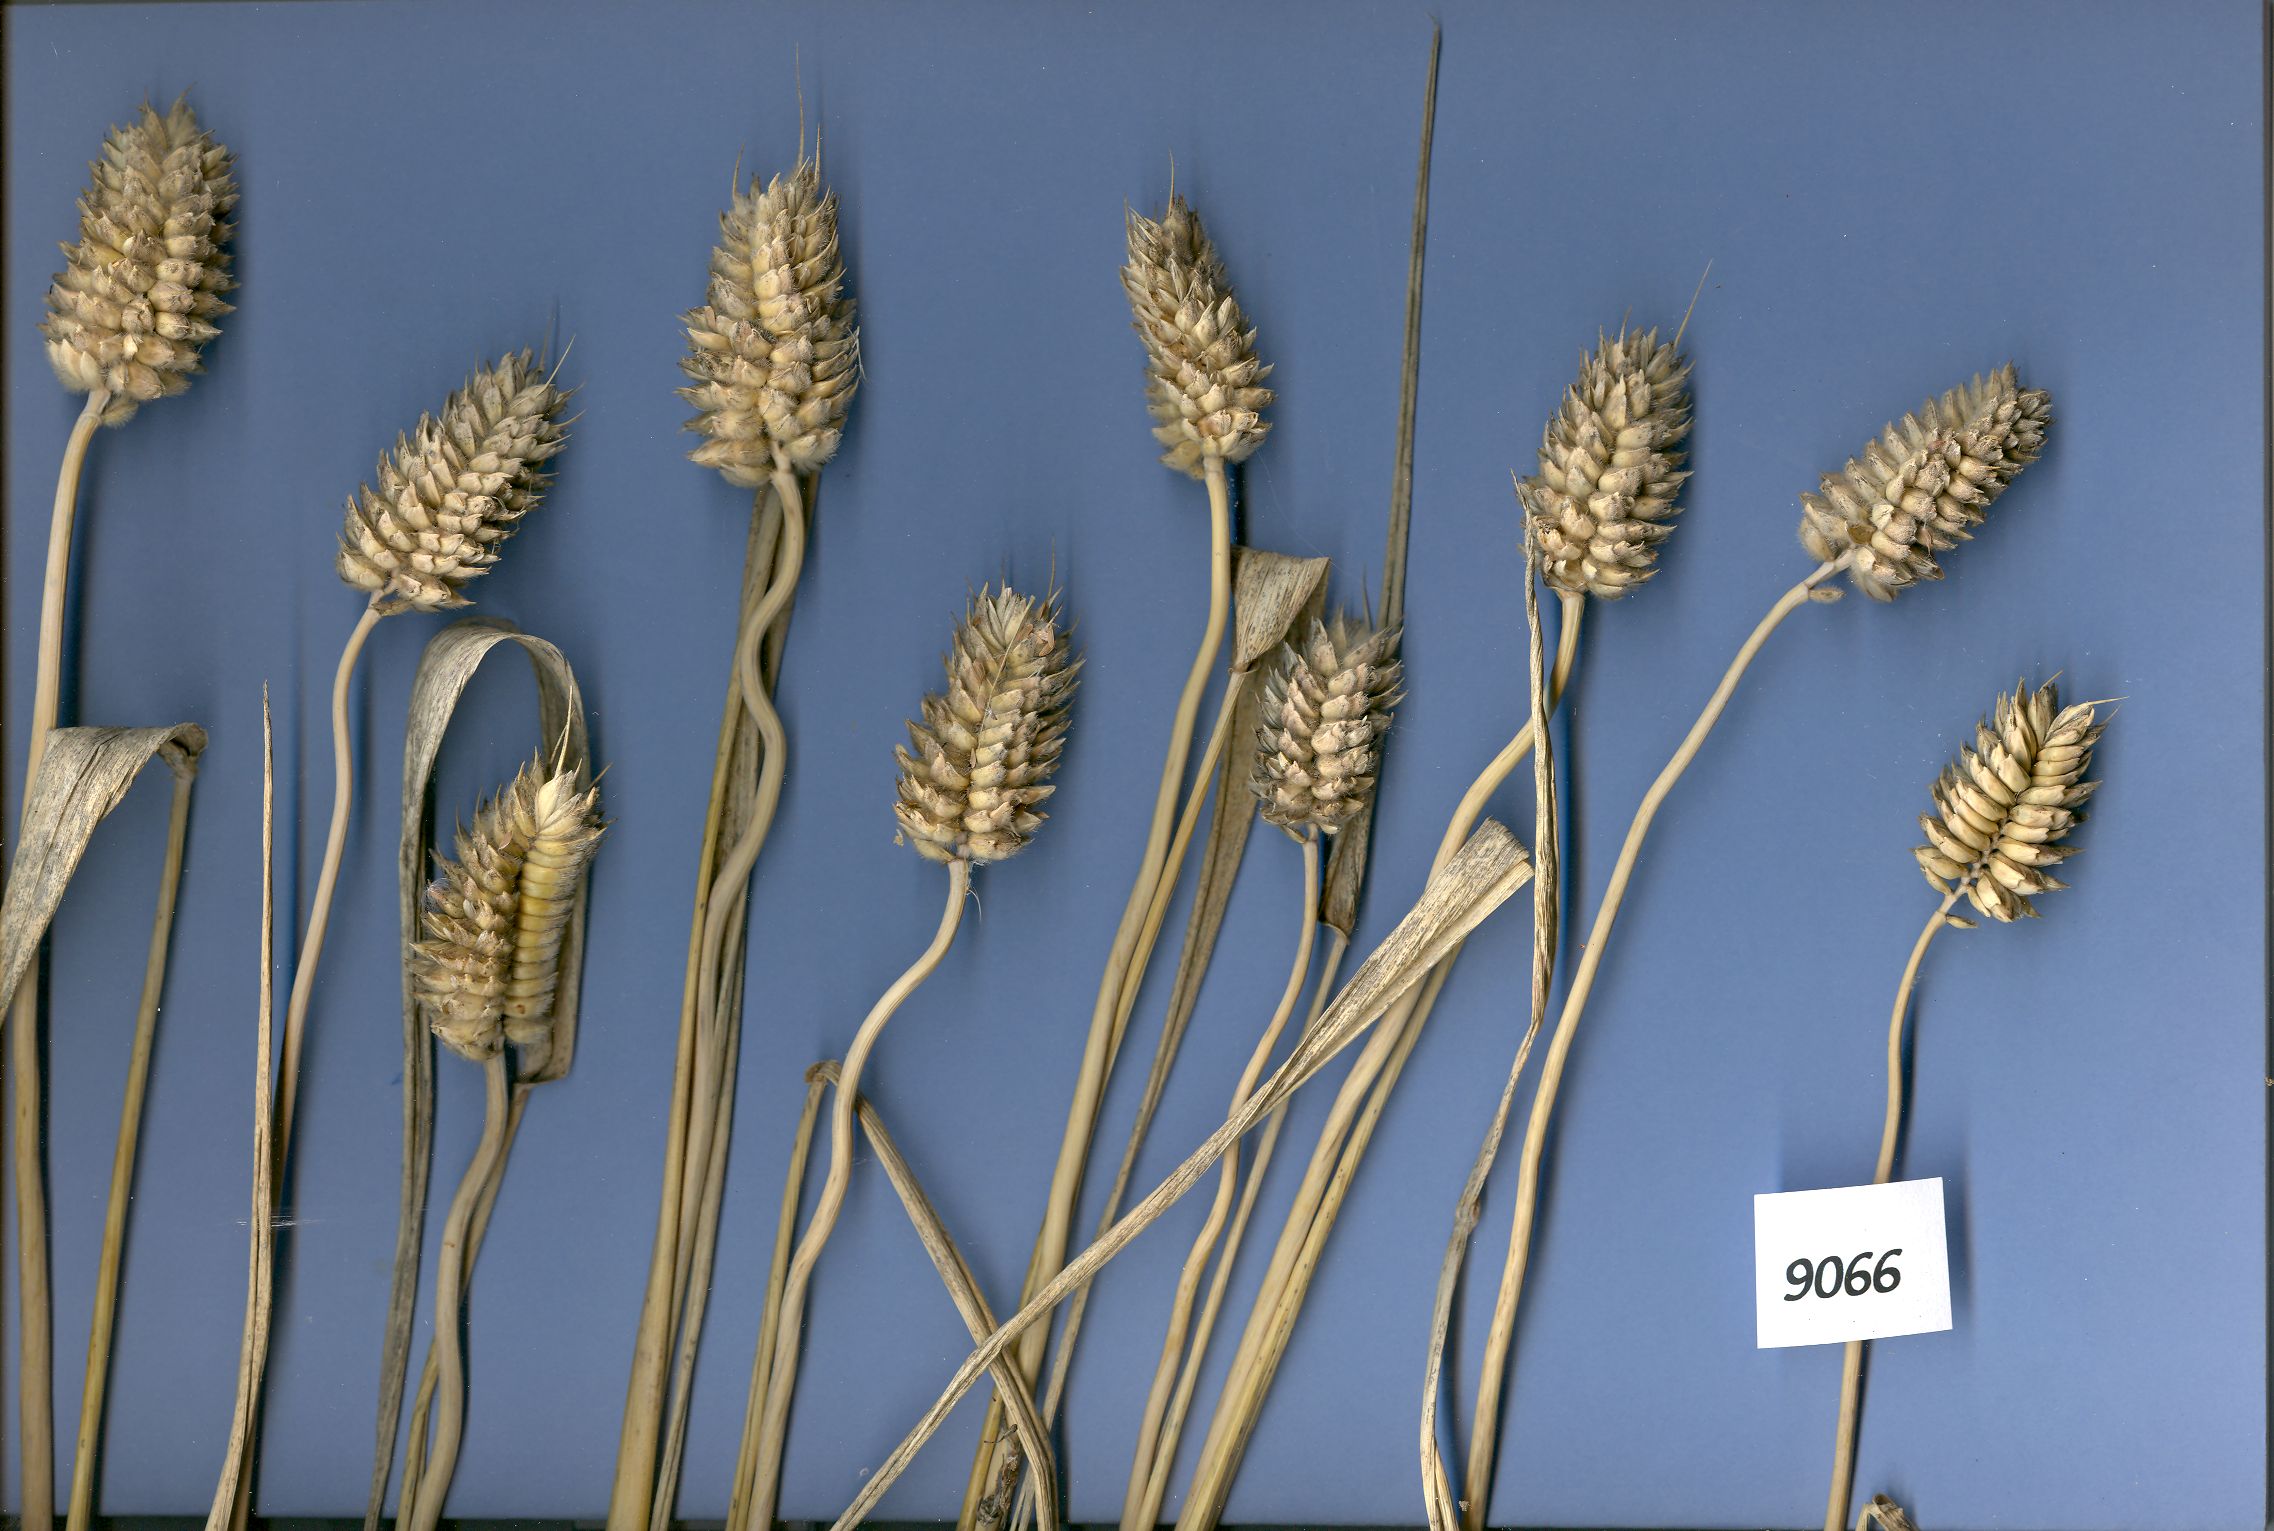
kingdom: Plantae
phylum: Tracheophyta
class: Liliopsida
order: Poales
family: Poaceae
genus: Triticum
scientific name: Triticum aestivum
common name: Common wheat
